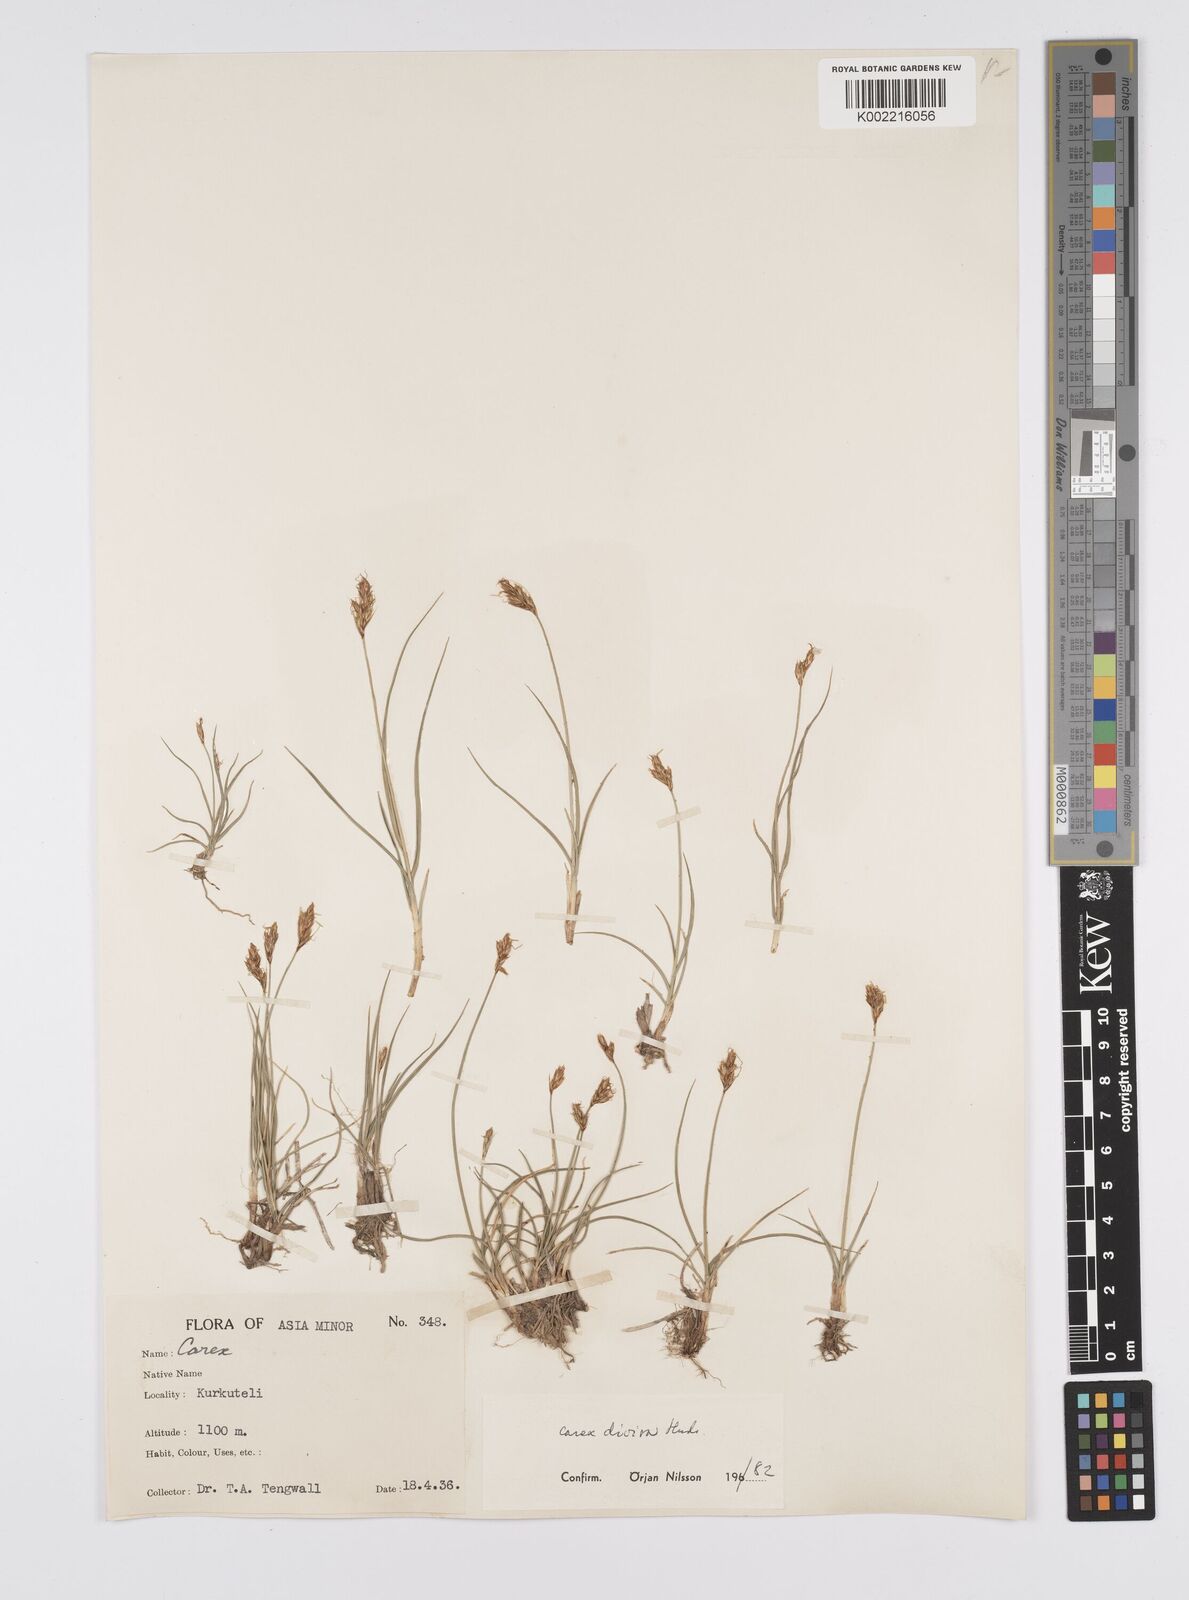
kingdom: Plantae
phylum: Tracheophyta
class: Liliopsida
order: Poales
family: Cyperaceae
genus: Carex
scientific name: Carex divisa
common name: Divided sedge
